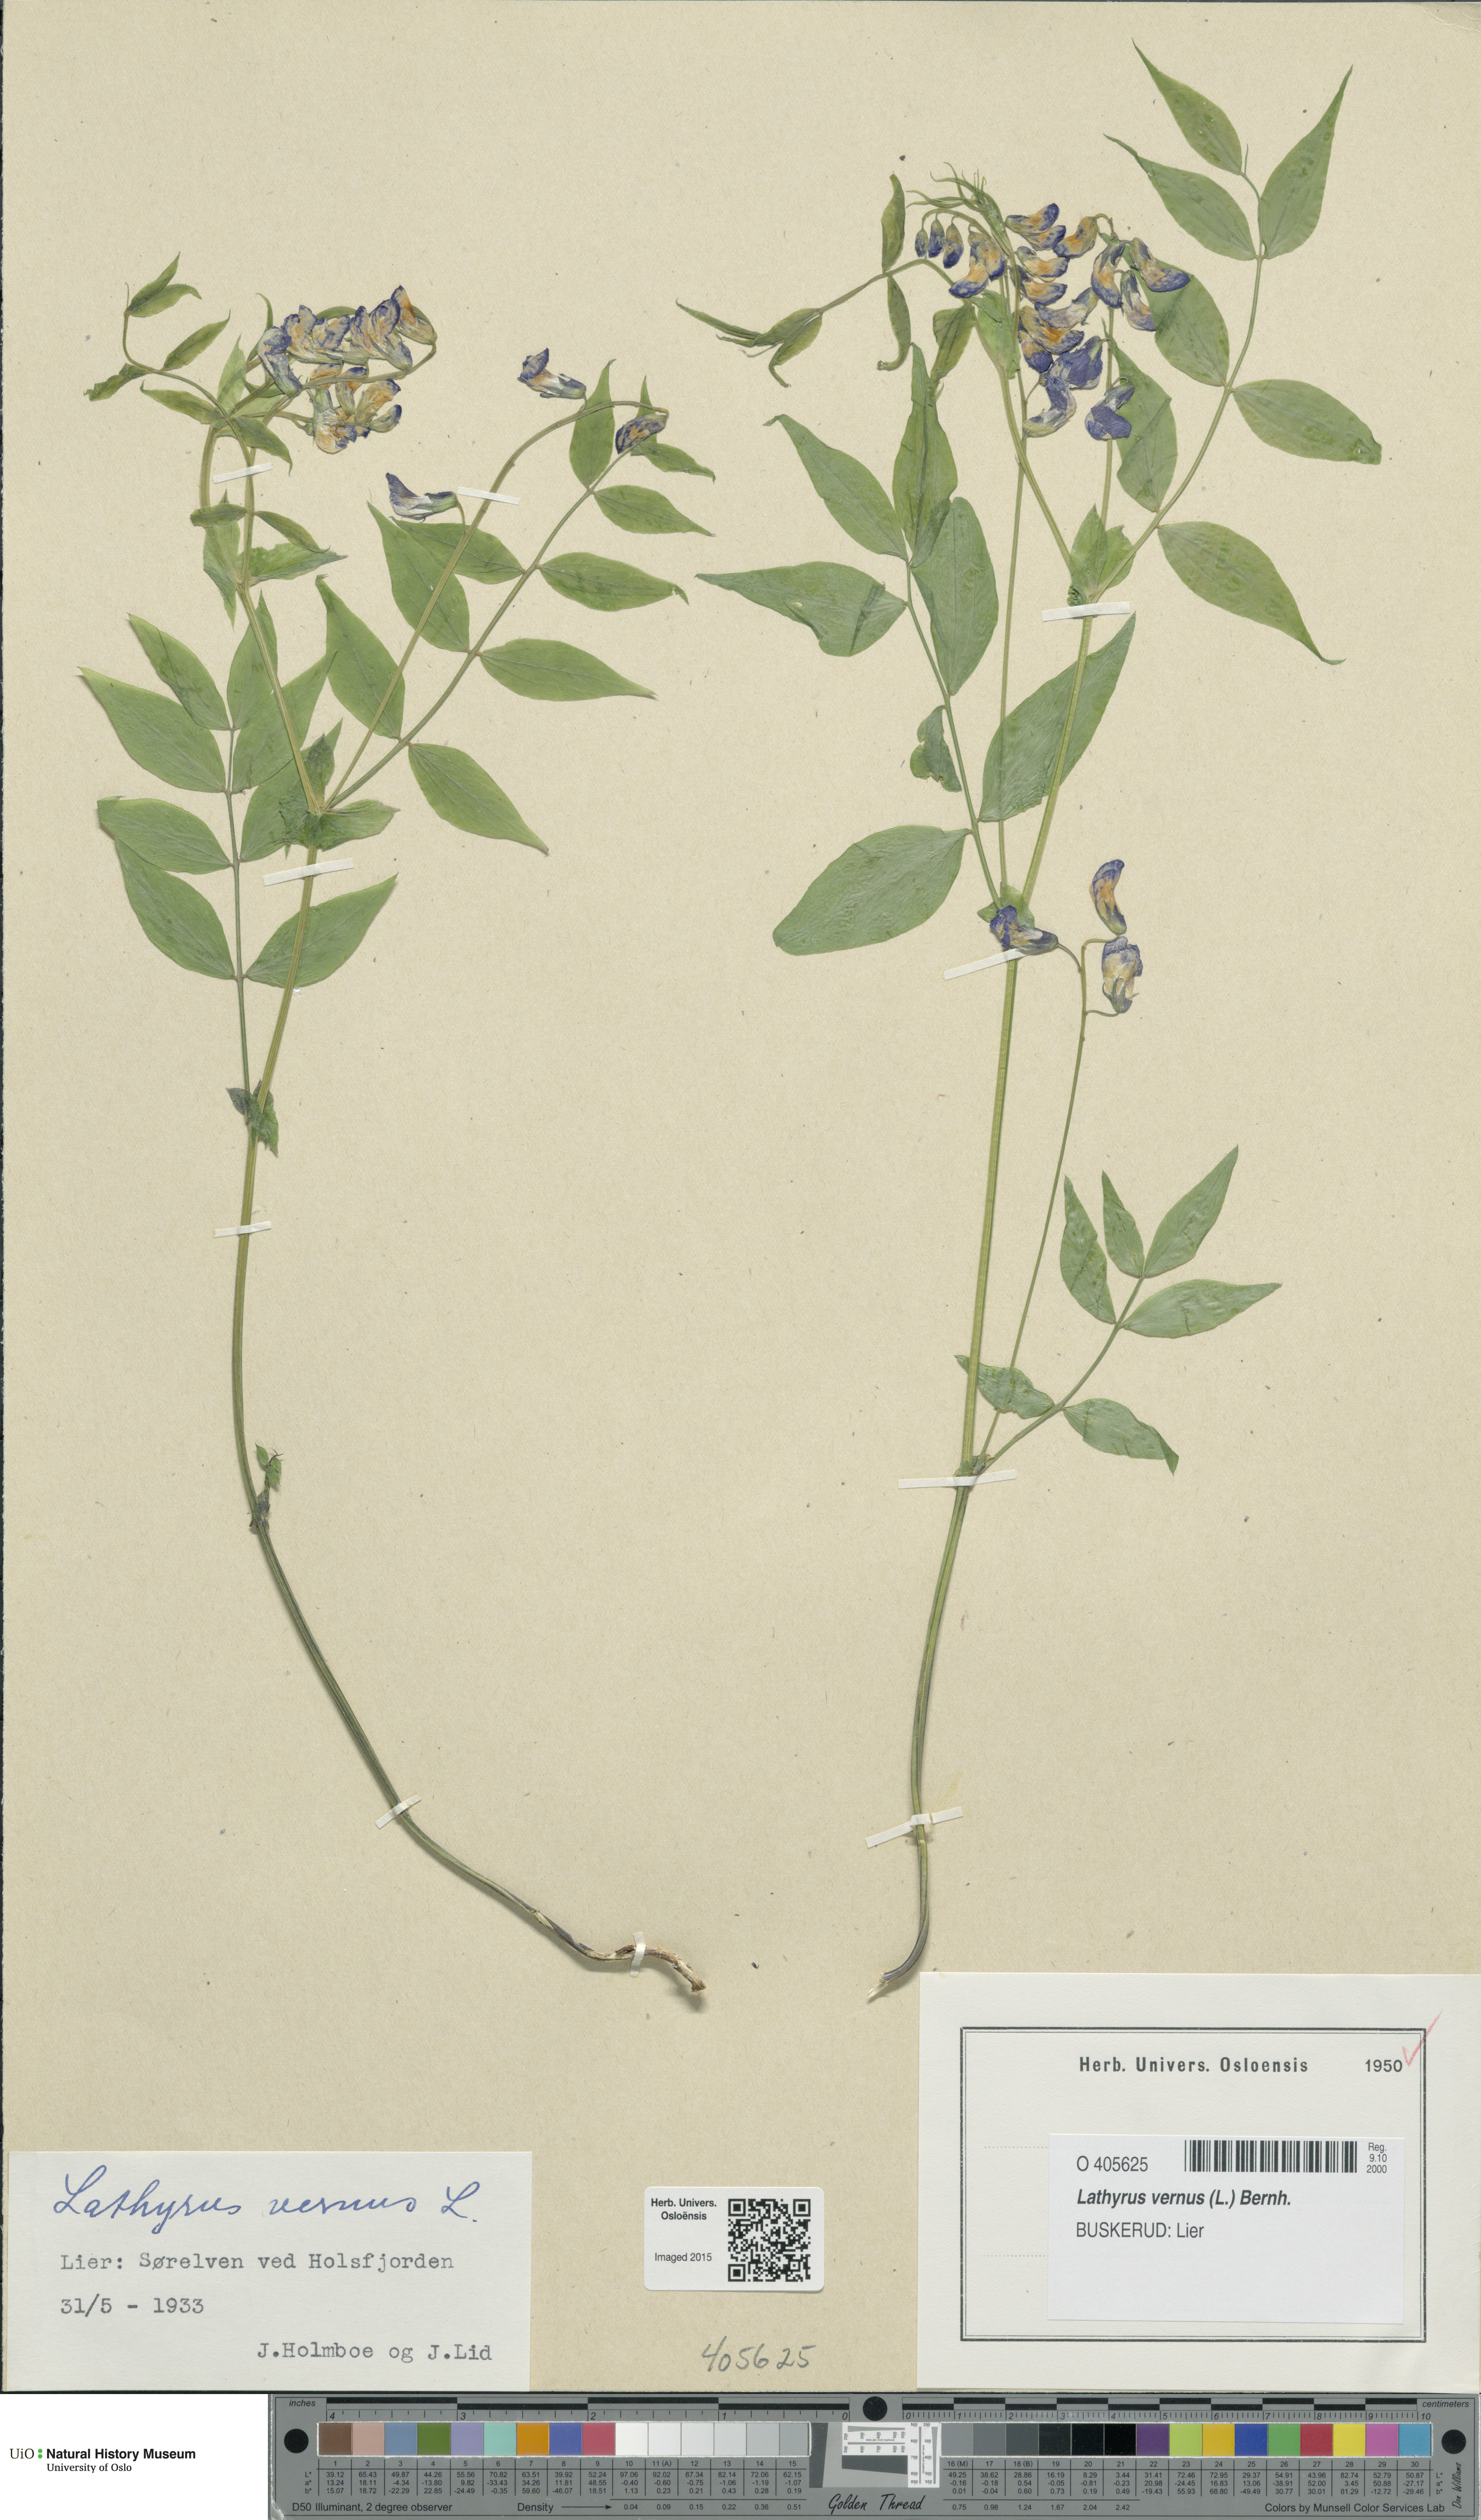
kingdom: Plantae
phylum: Tracheophyta
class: Magnoliopsida
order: Fabales
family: Fabaceae
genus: Lathyrus
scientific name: Lathyrus vernus
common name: Spring pea
